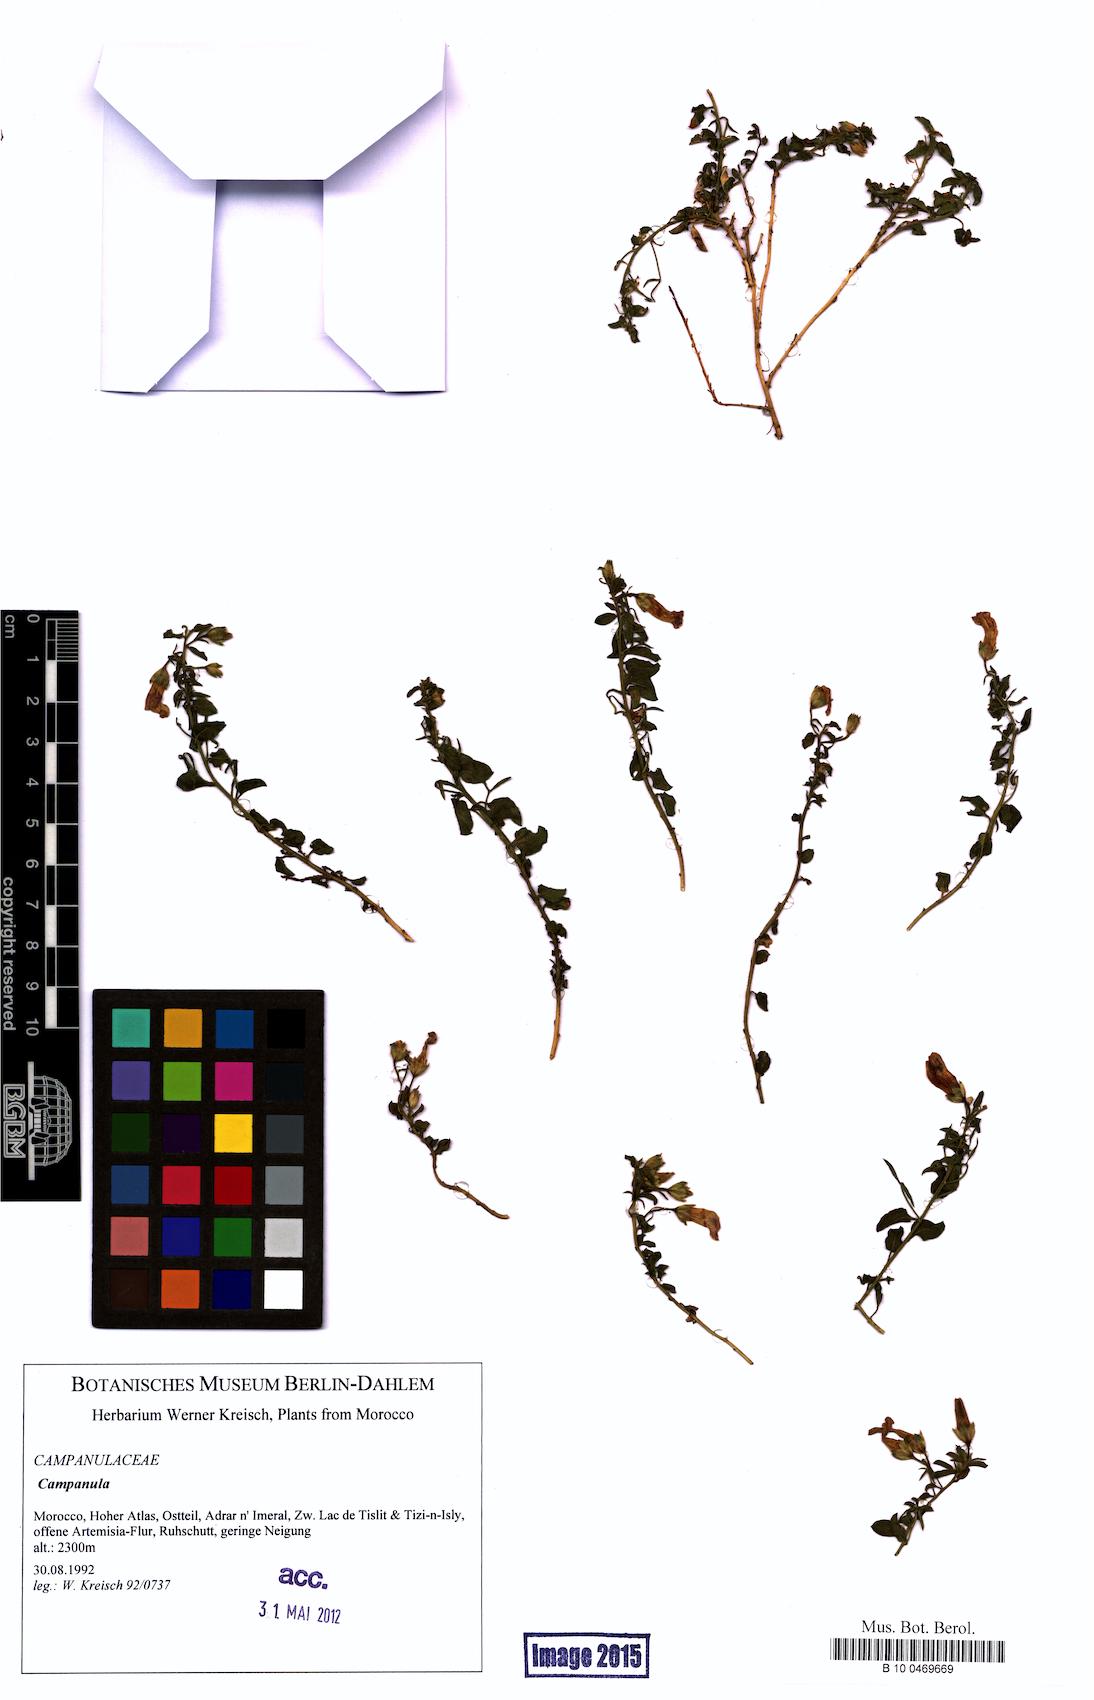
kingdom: Plantae
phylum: Tracheophyta
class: Magnoliopsida
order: Asterales
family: Campanulaceae
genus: Campanula
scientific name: Campanula
